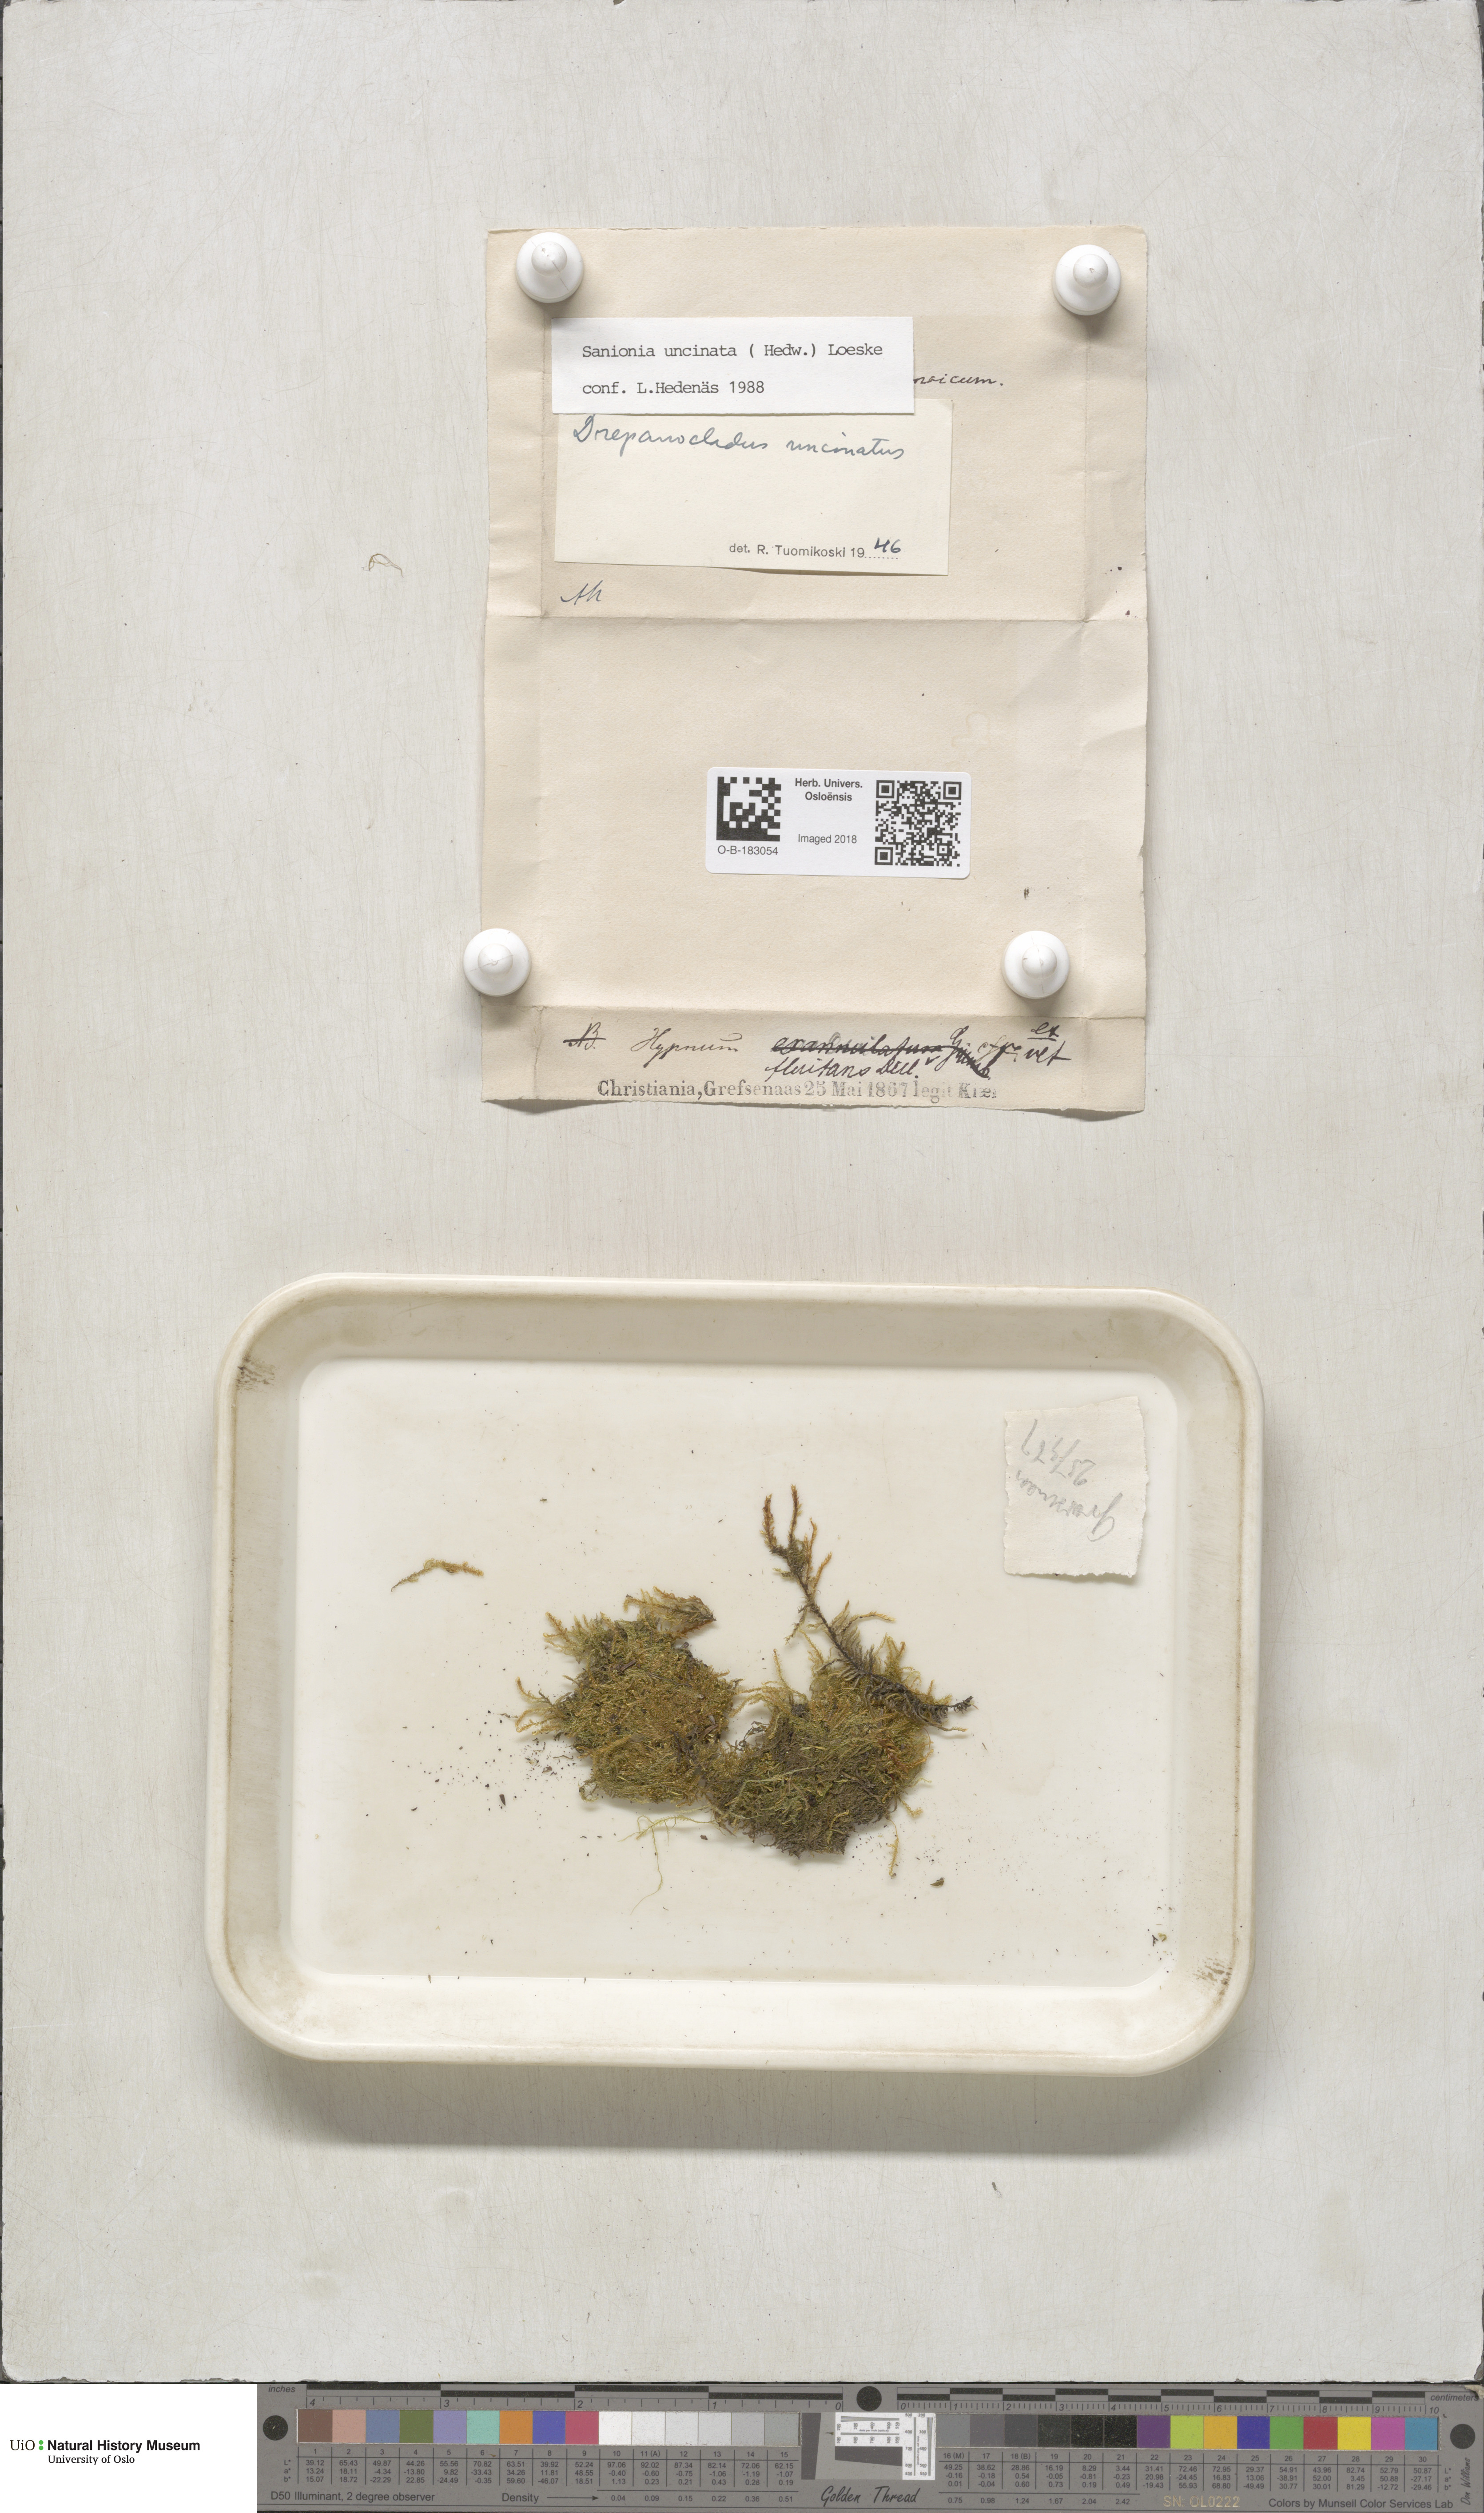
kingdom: Plantae
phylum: Bryophyta
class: Bryopsida
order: Hypnales
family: Scorpidiaceae
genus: Sanionia
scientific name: Sanionia uncinata
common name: Sickle moss
